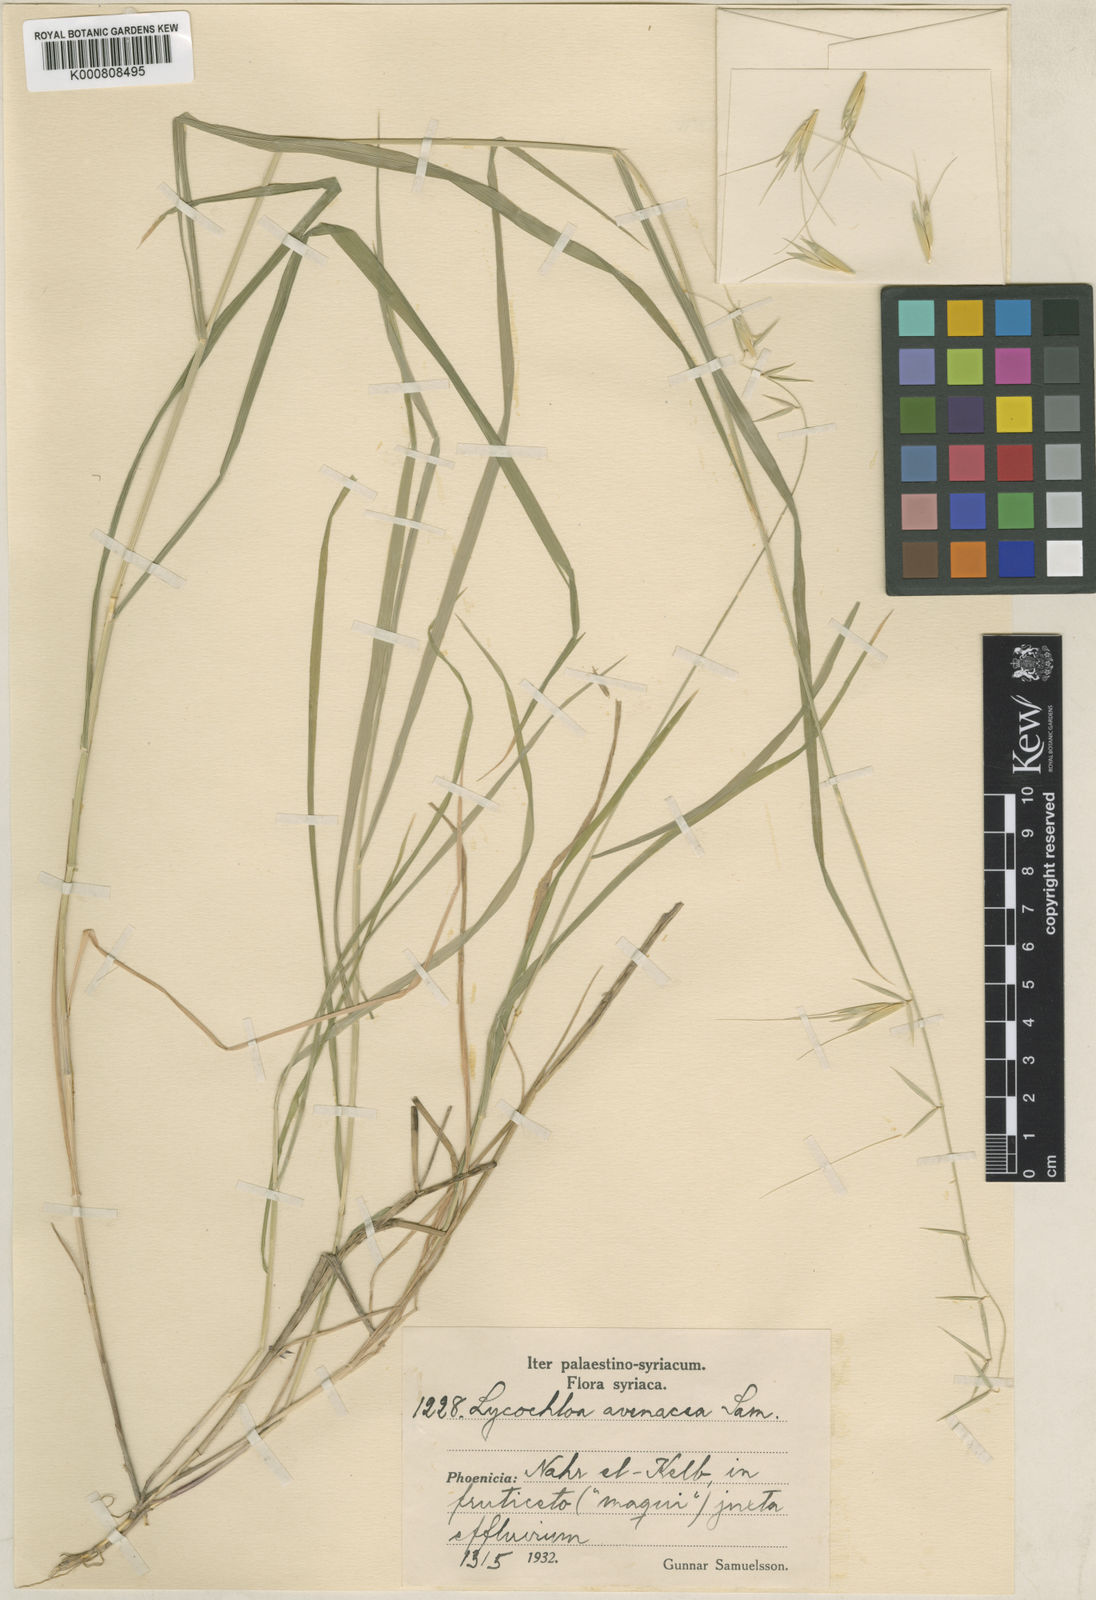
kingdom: Plantae
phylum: Tracheophyta
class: Liliopsida
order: Poales
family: Poaceae
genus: Lycochloa
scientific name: Lycochloa avenacea
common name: Oat-like lycochloa
